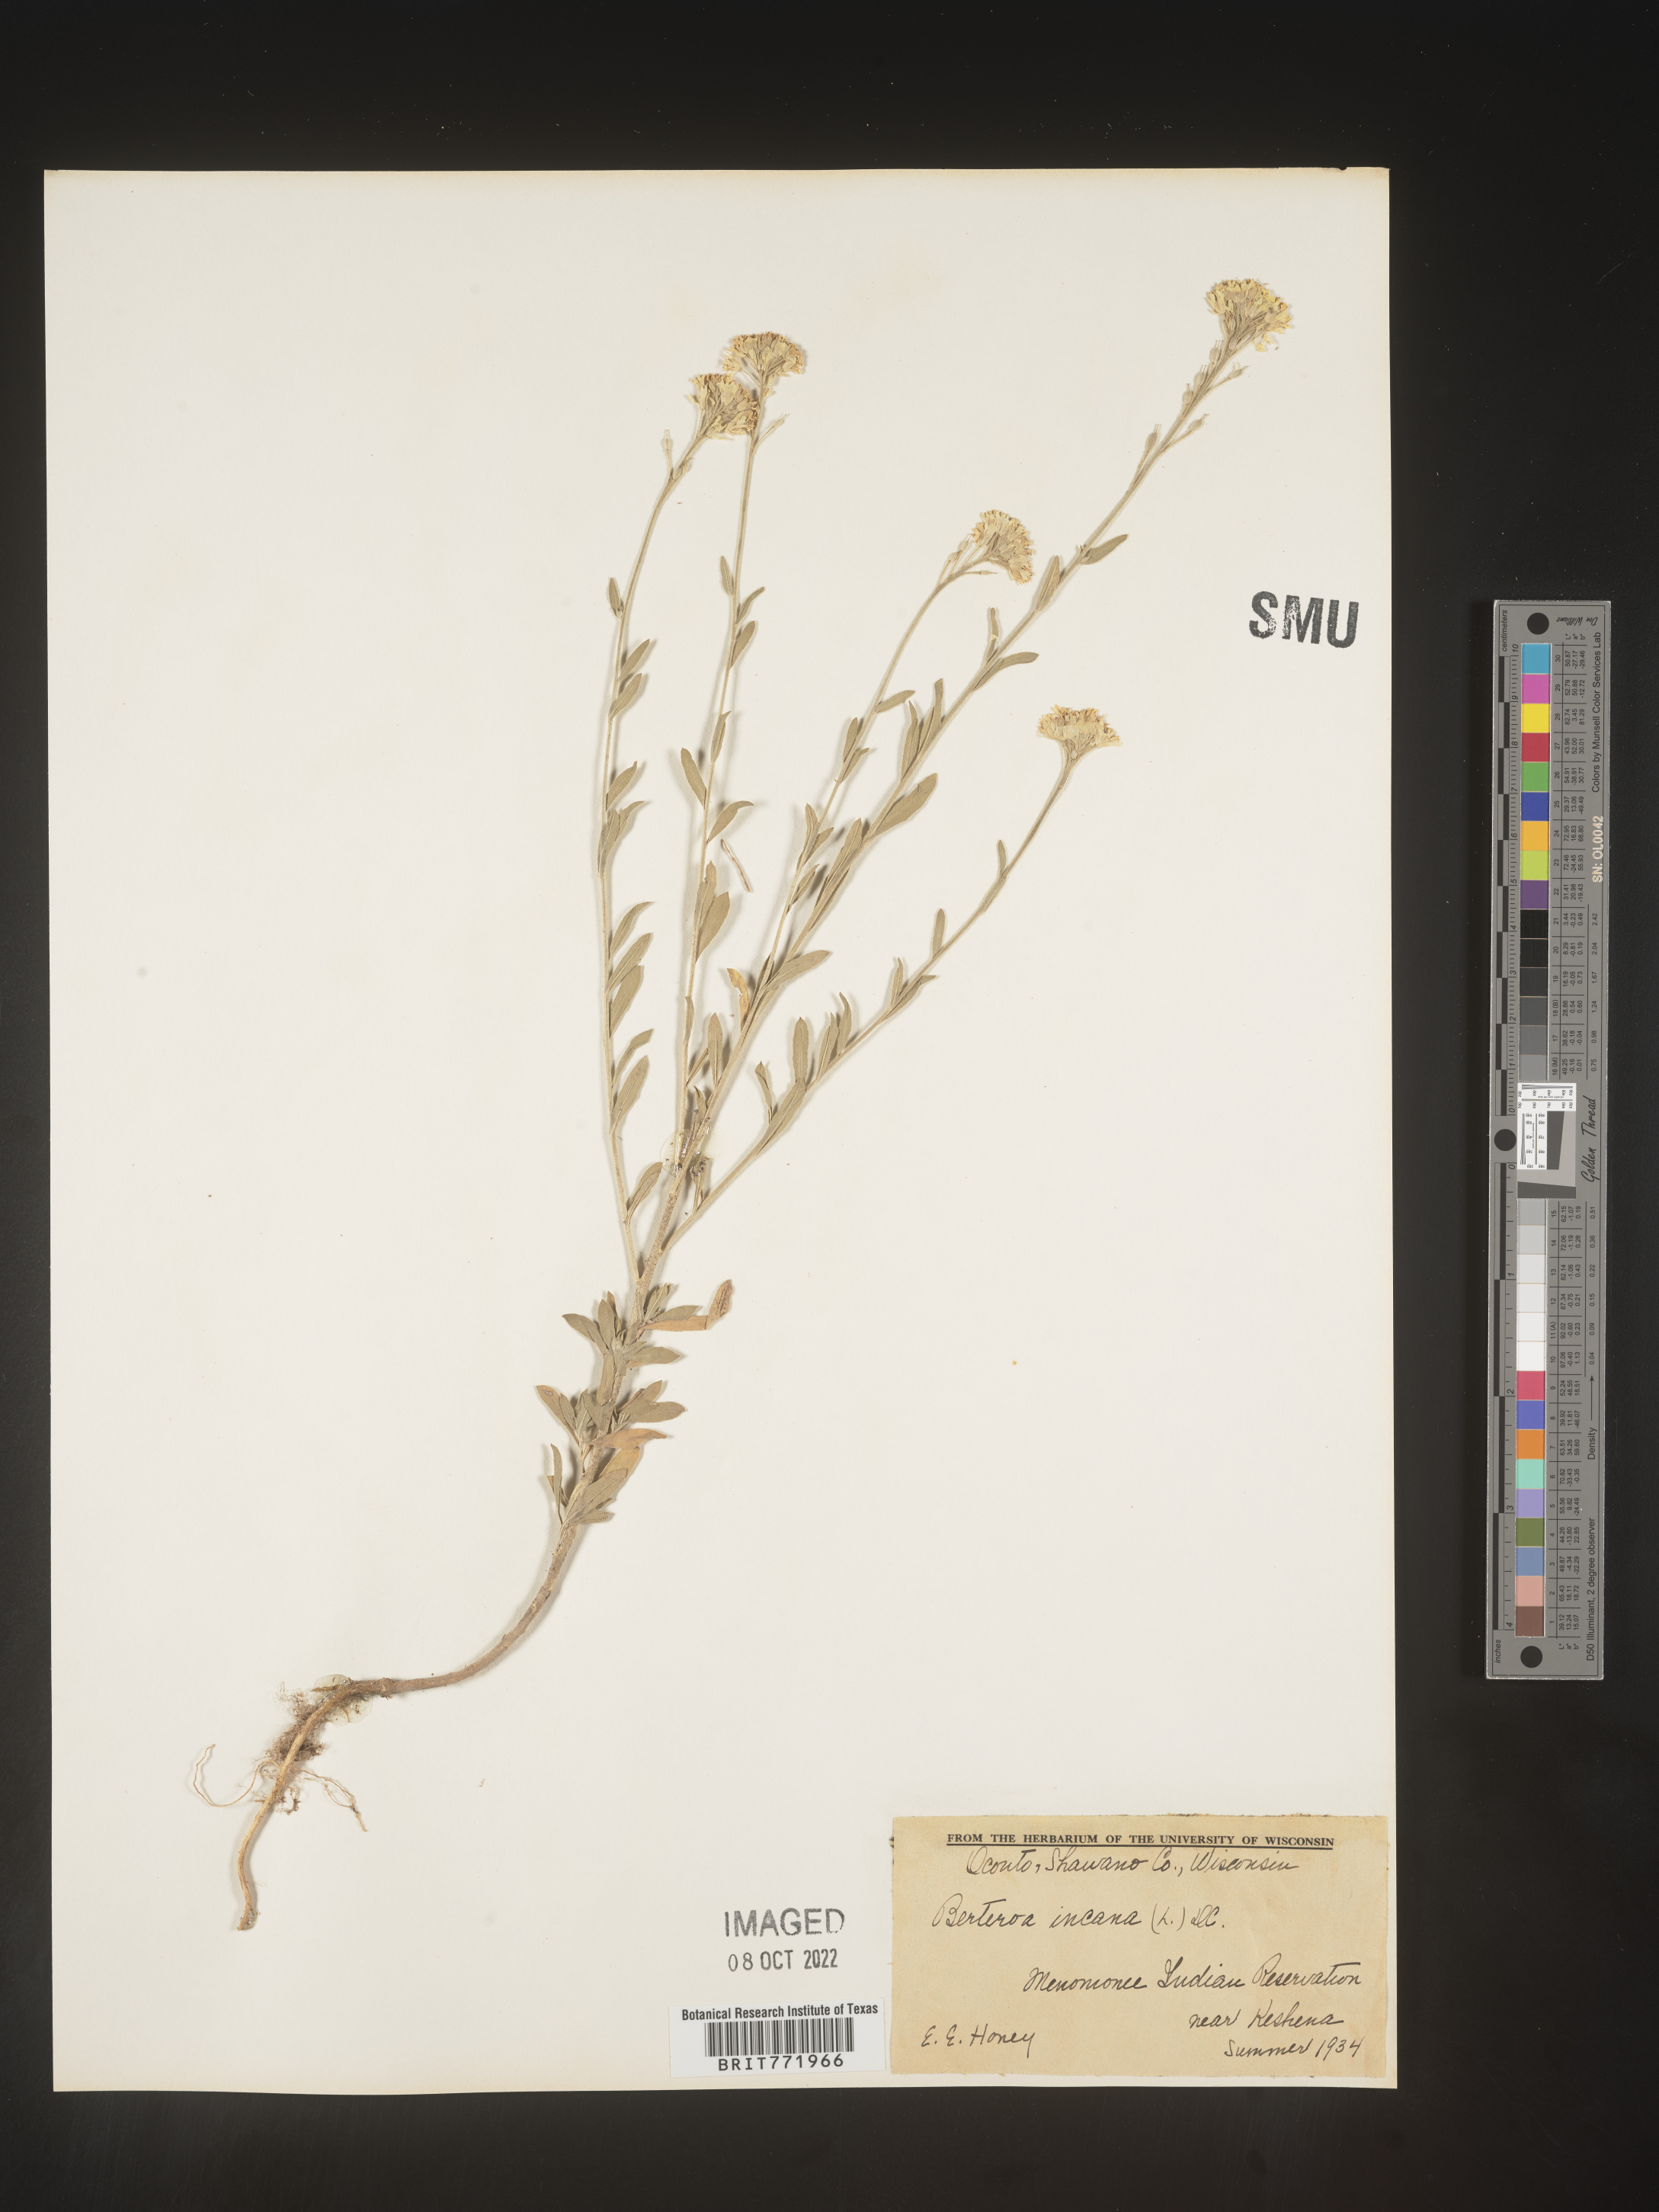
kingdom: Plantae
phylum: Tracheophyta
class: Magnoliopsida
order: Brassicales
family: Brassicaceae
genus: Berteroa
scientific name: Berteroa incana
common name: Hoary alison
